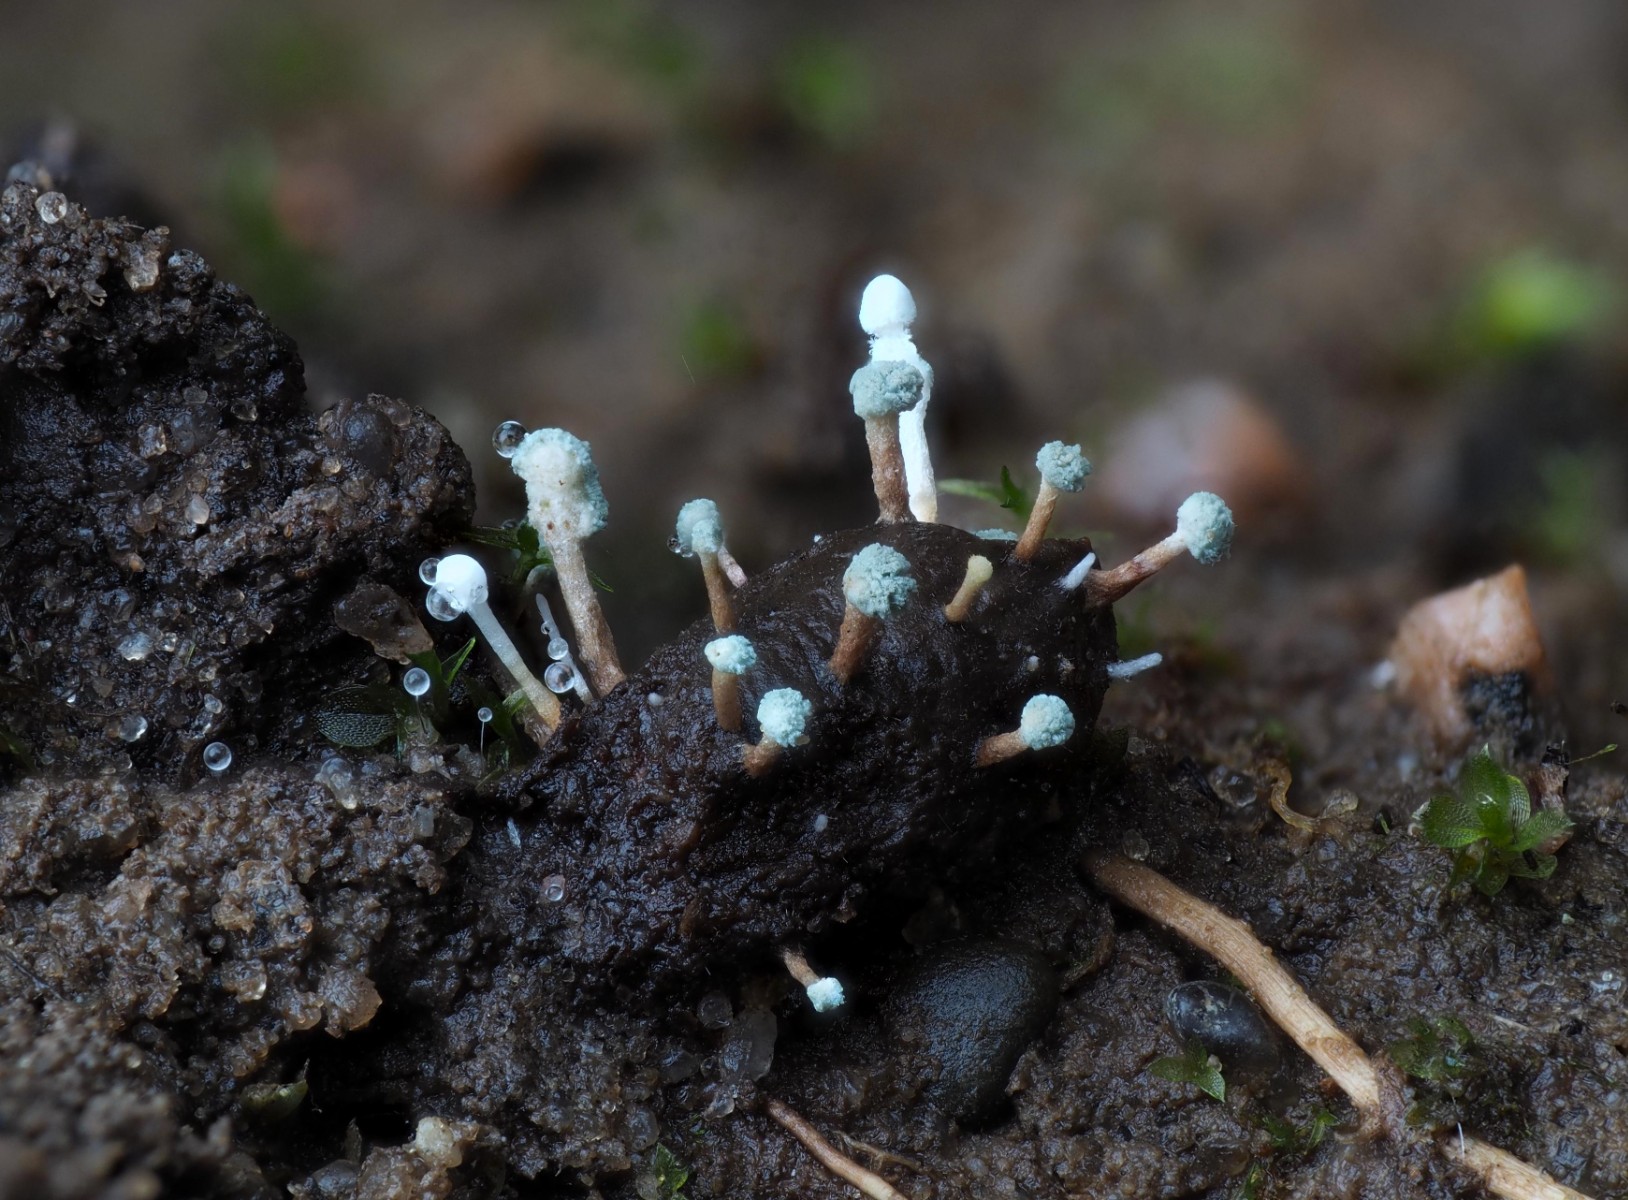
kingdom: Fungi
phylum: Ascomycota
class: Eurotiomycetes
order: Eurotiales
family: Aspergillaceae
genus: Penicillium
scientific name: Penicillium
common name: penselskimmel
